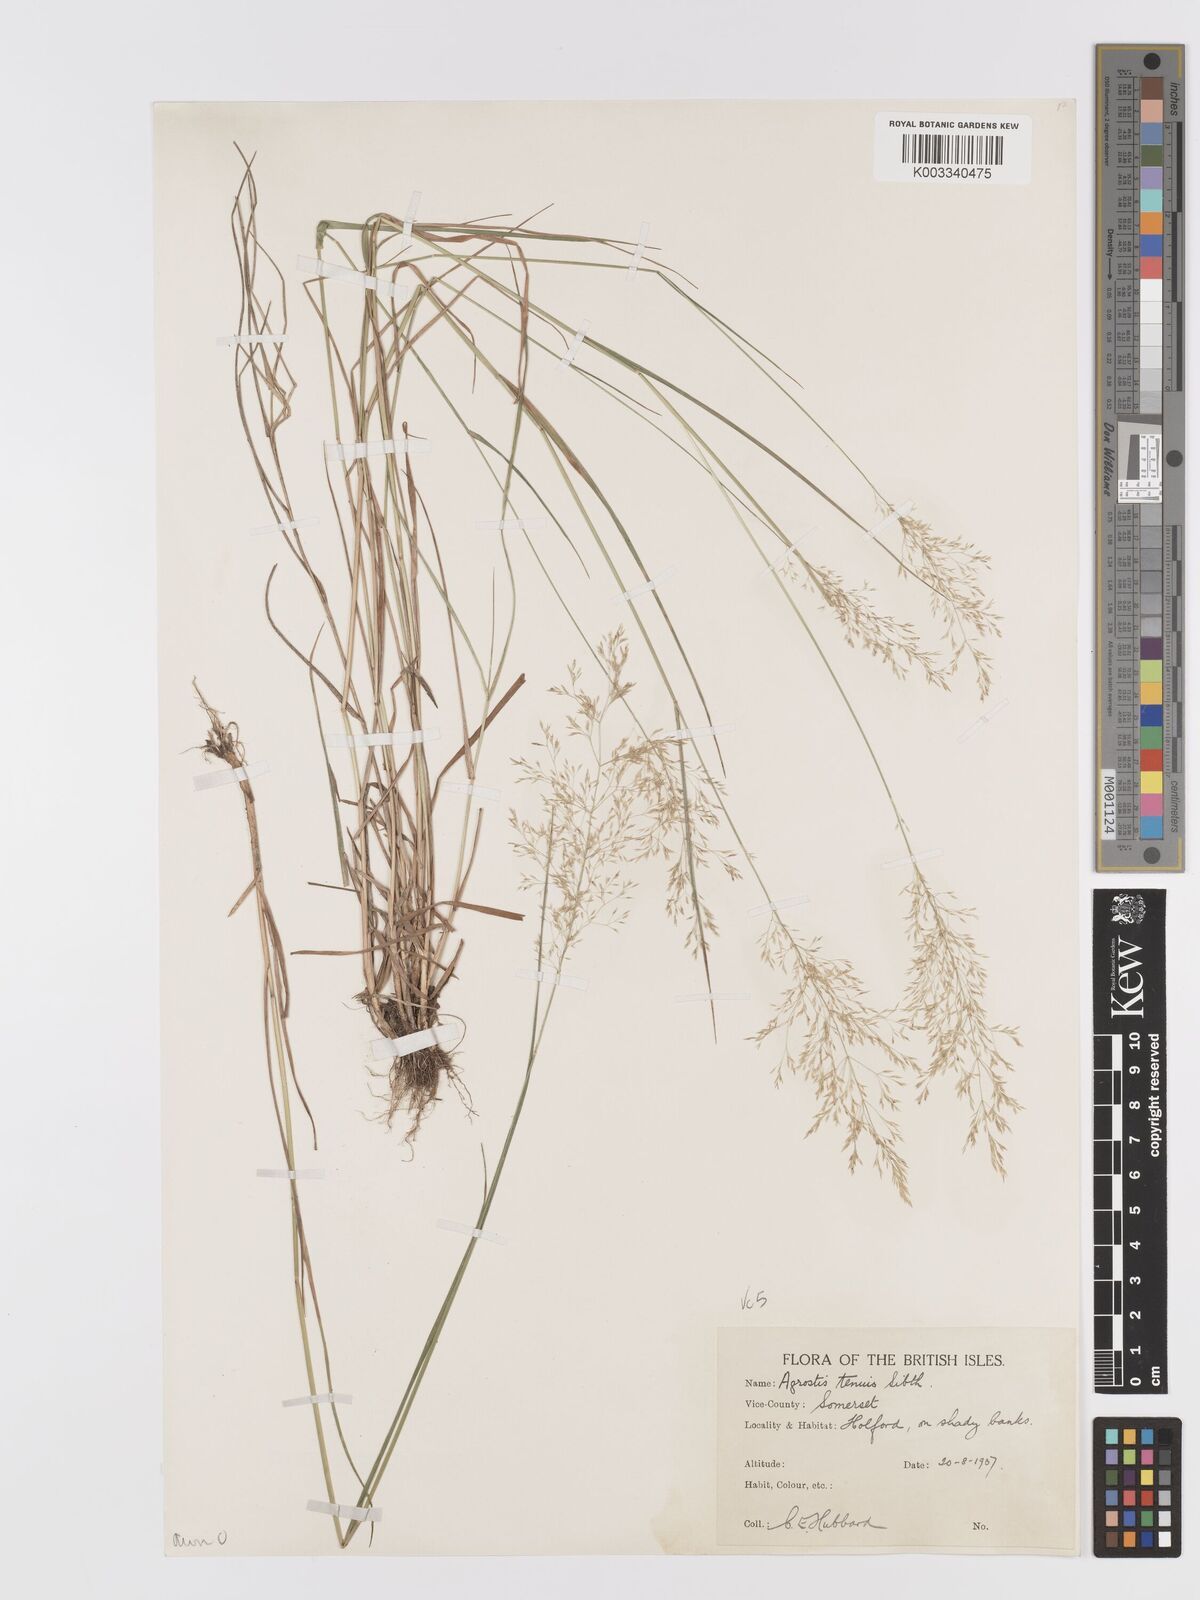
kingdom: Plantae
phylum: Tracheophyta
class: Liliopsida
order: Poales
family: Poaceae
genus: Agrostis
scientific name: Agrostis capillaris
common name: Colonial bentgrass
